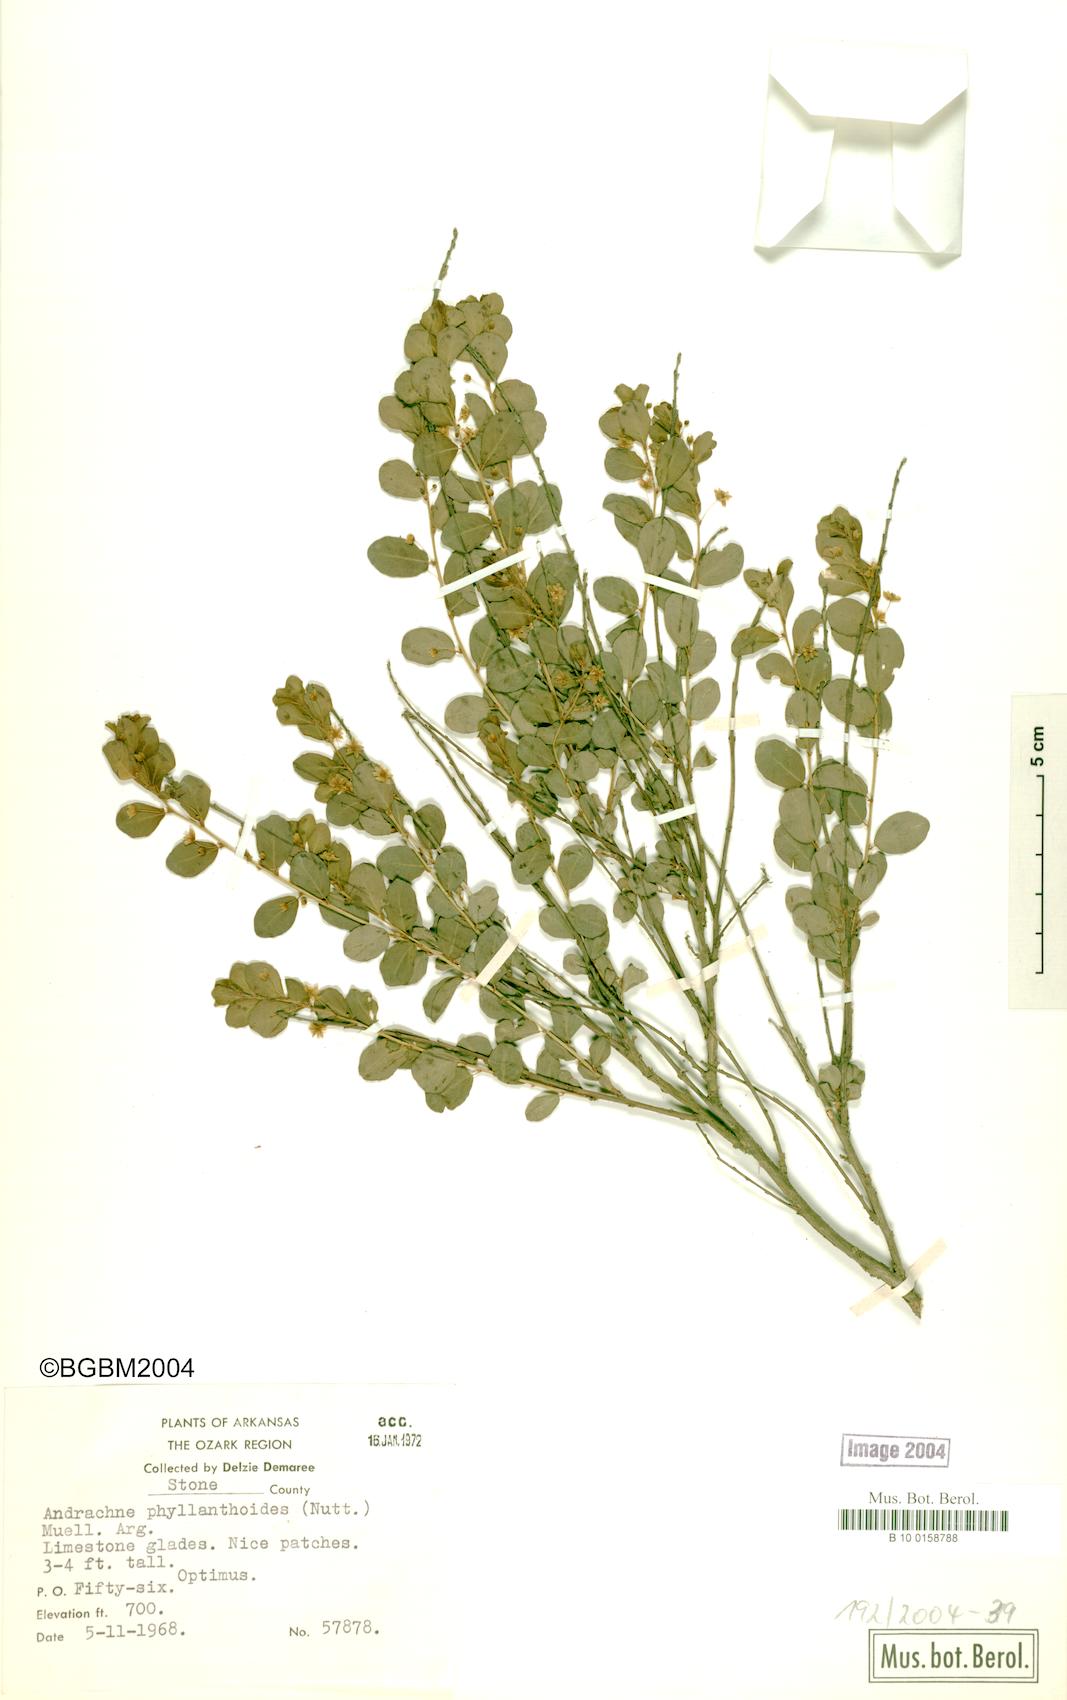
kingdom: Plantae
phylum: Tracheophyta
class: Magnoliopsida
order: Malpighiales
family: Phyllanthaceae
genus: Phyllanthopsis
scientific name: Phyllanthopsis phyllanthoides
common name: Missouri maidenbush
